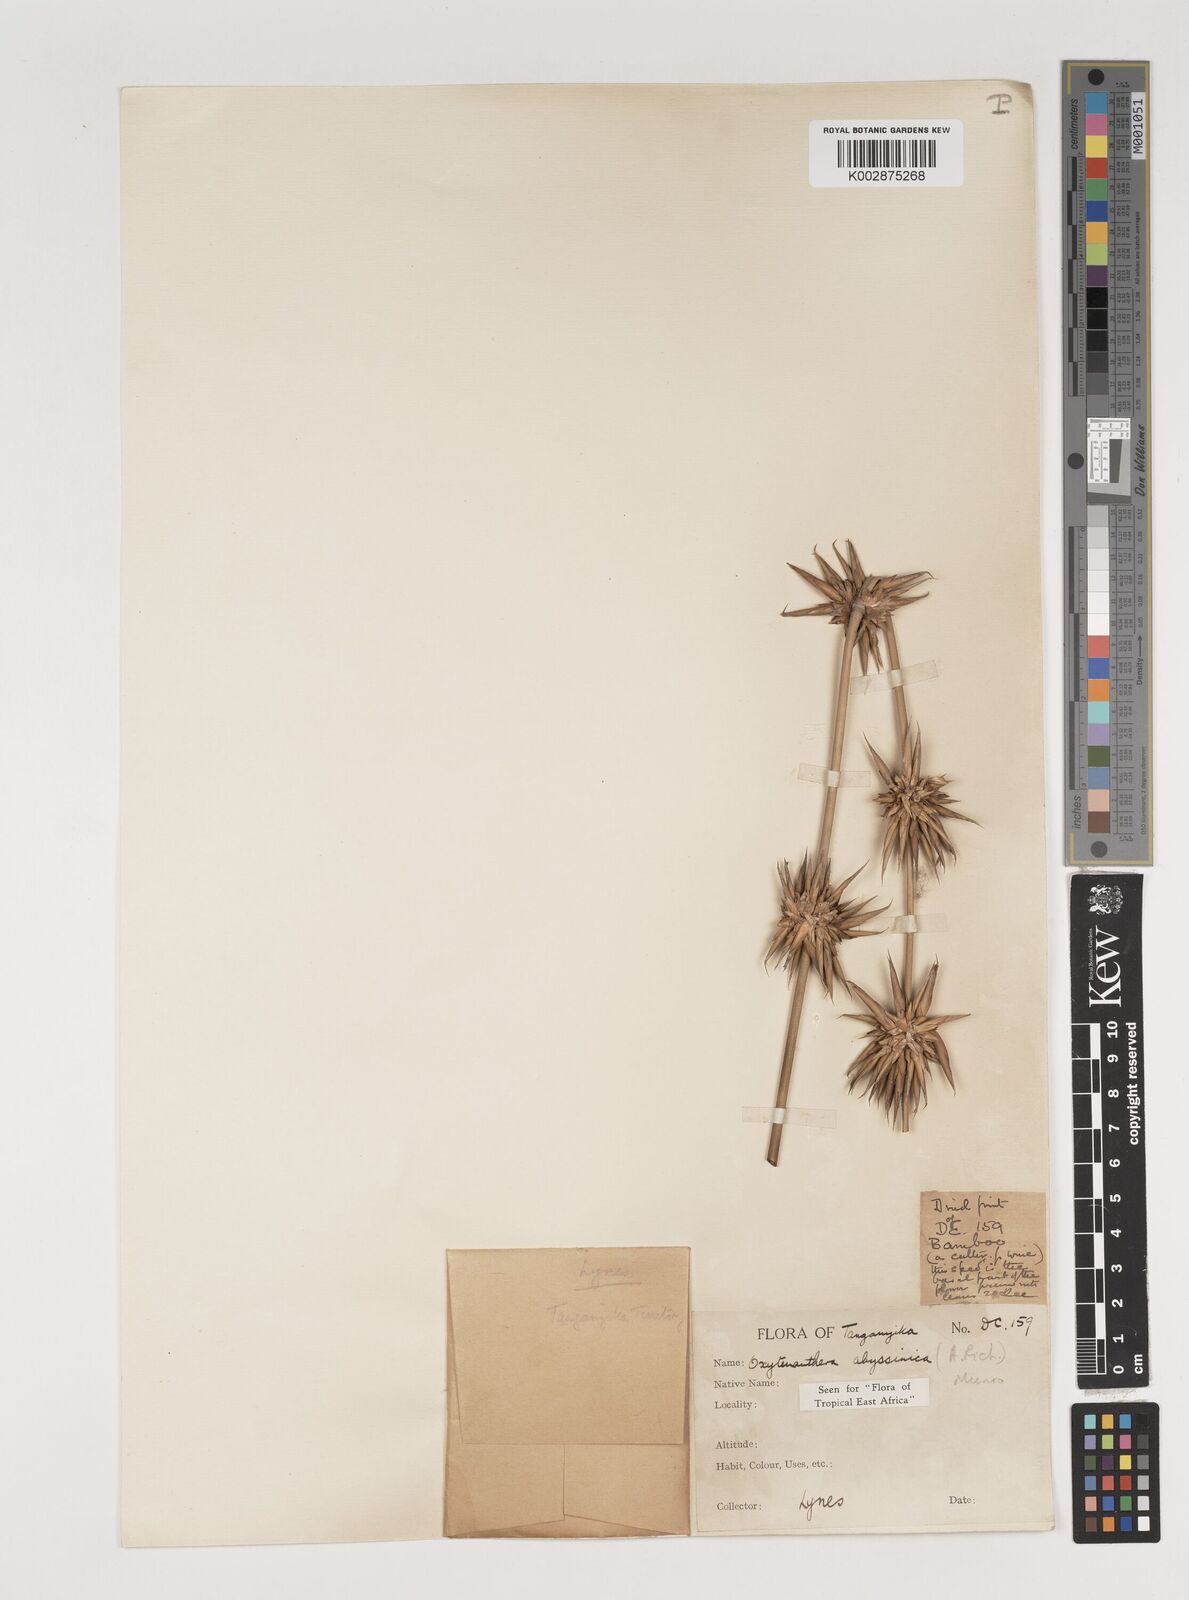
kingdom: Plantae
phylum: Tracheophyta
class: Liliopsida
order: Poales
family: Poaceae
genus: Oxytenanthera
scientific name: Oxytenanthera
